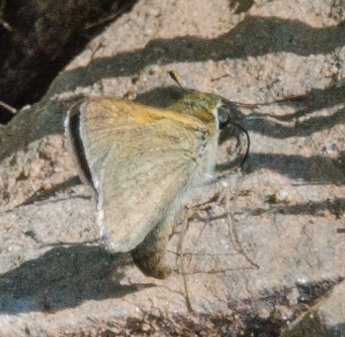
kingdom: Animalia
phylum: Arthropoda
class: Insecta
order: Lepidoptera
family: Hesperiidae
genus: Polites
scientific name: Polites themistocles
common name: Tawny-edged Skipper
